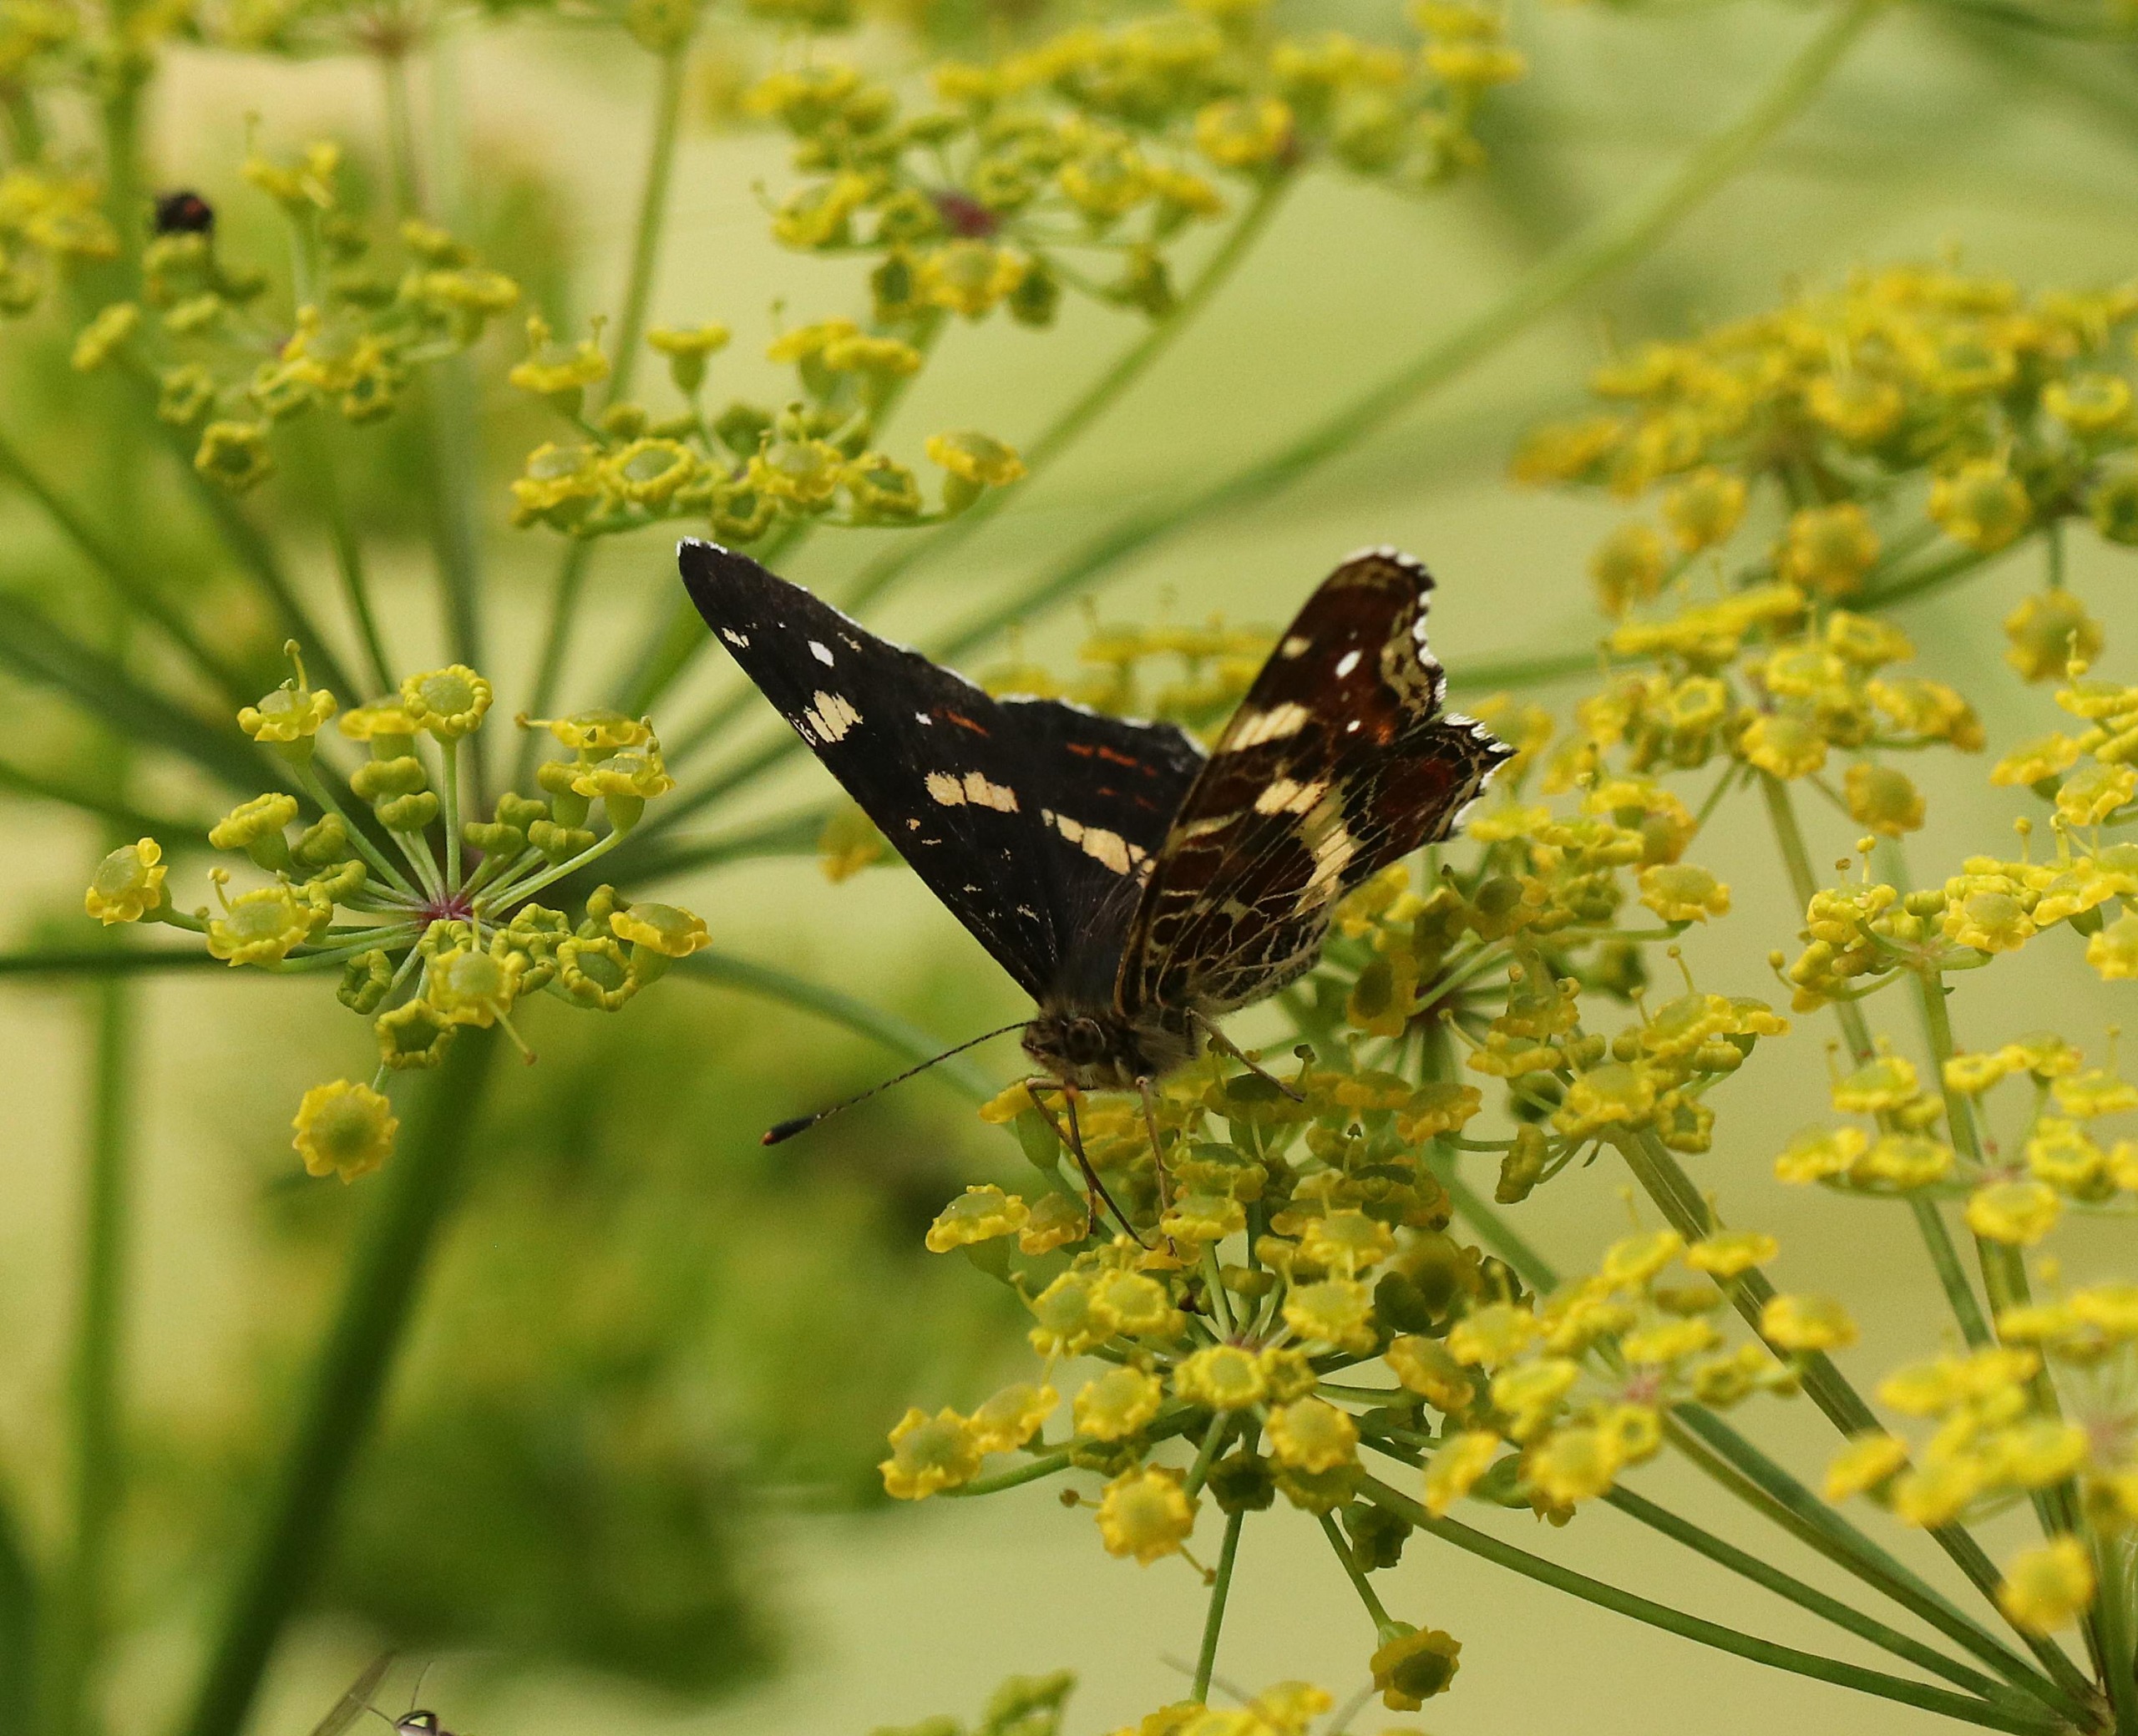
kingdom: Animalia
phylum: Arthropoda
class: Insecta
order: Lepidoptera
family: Nymphalidae
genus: Araschnia
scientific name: Araschnia levana
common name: Nældesommerfugl
